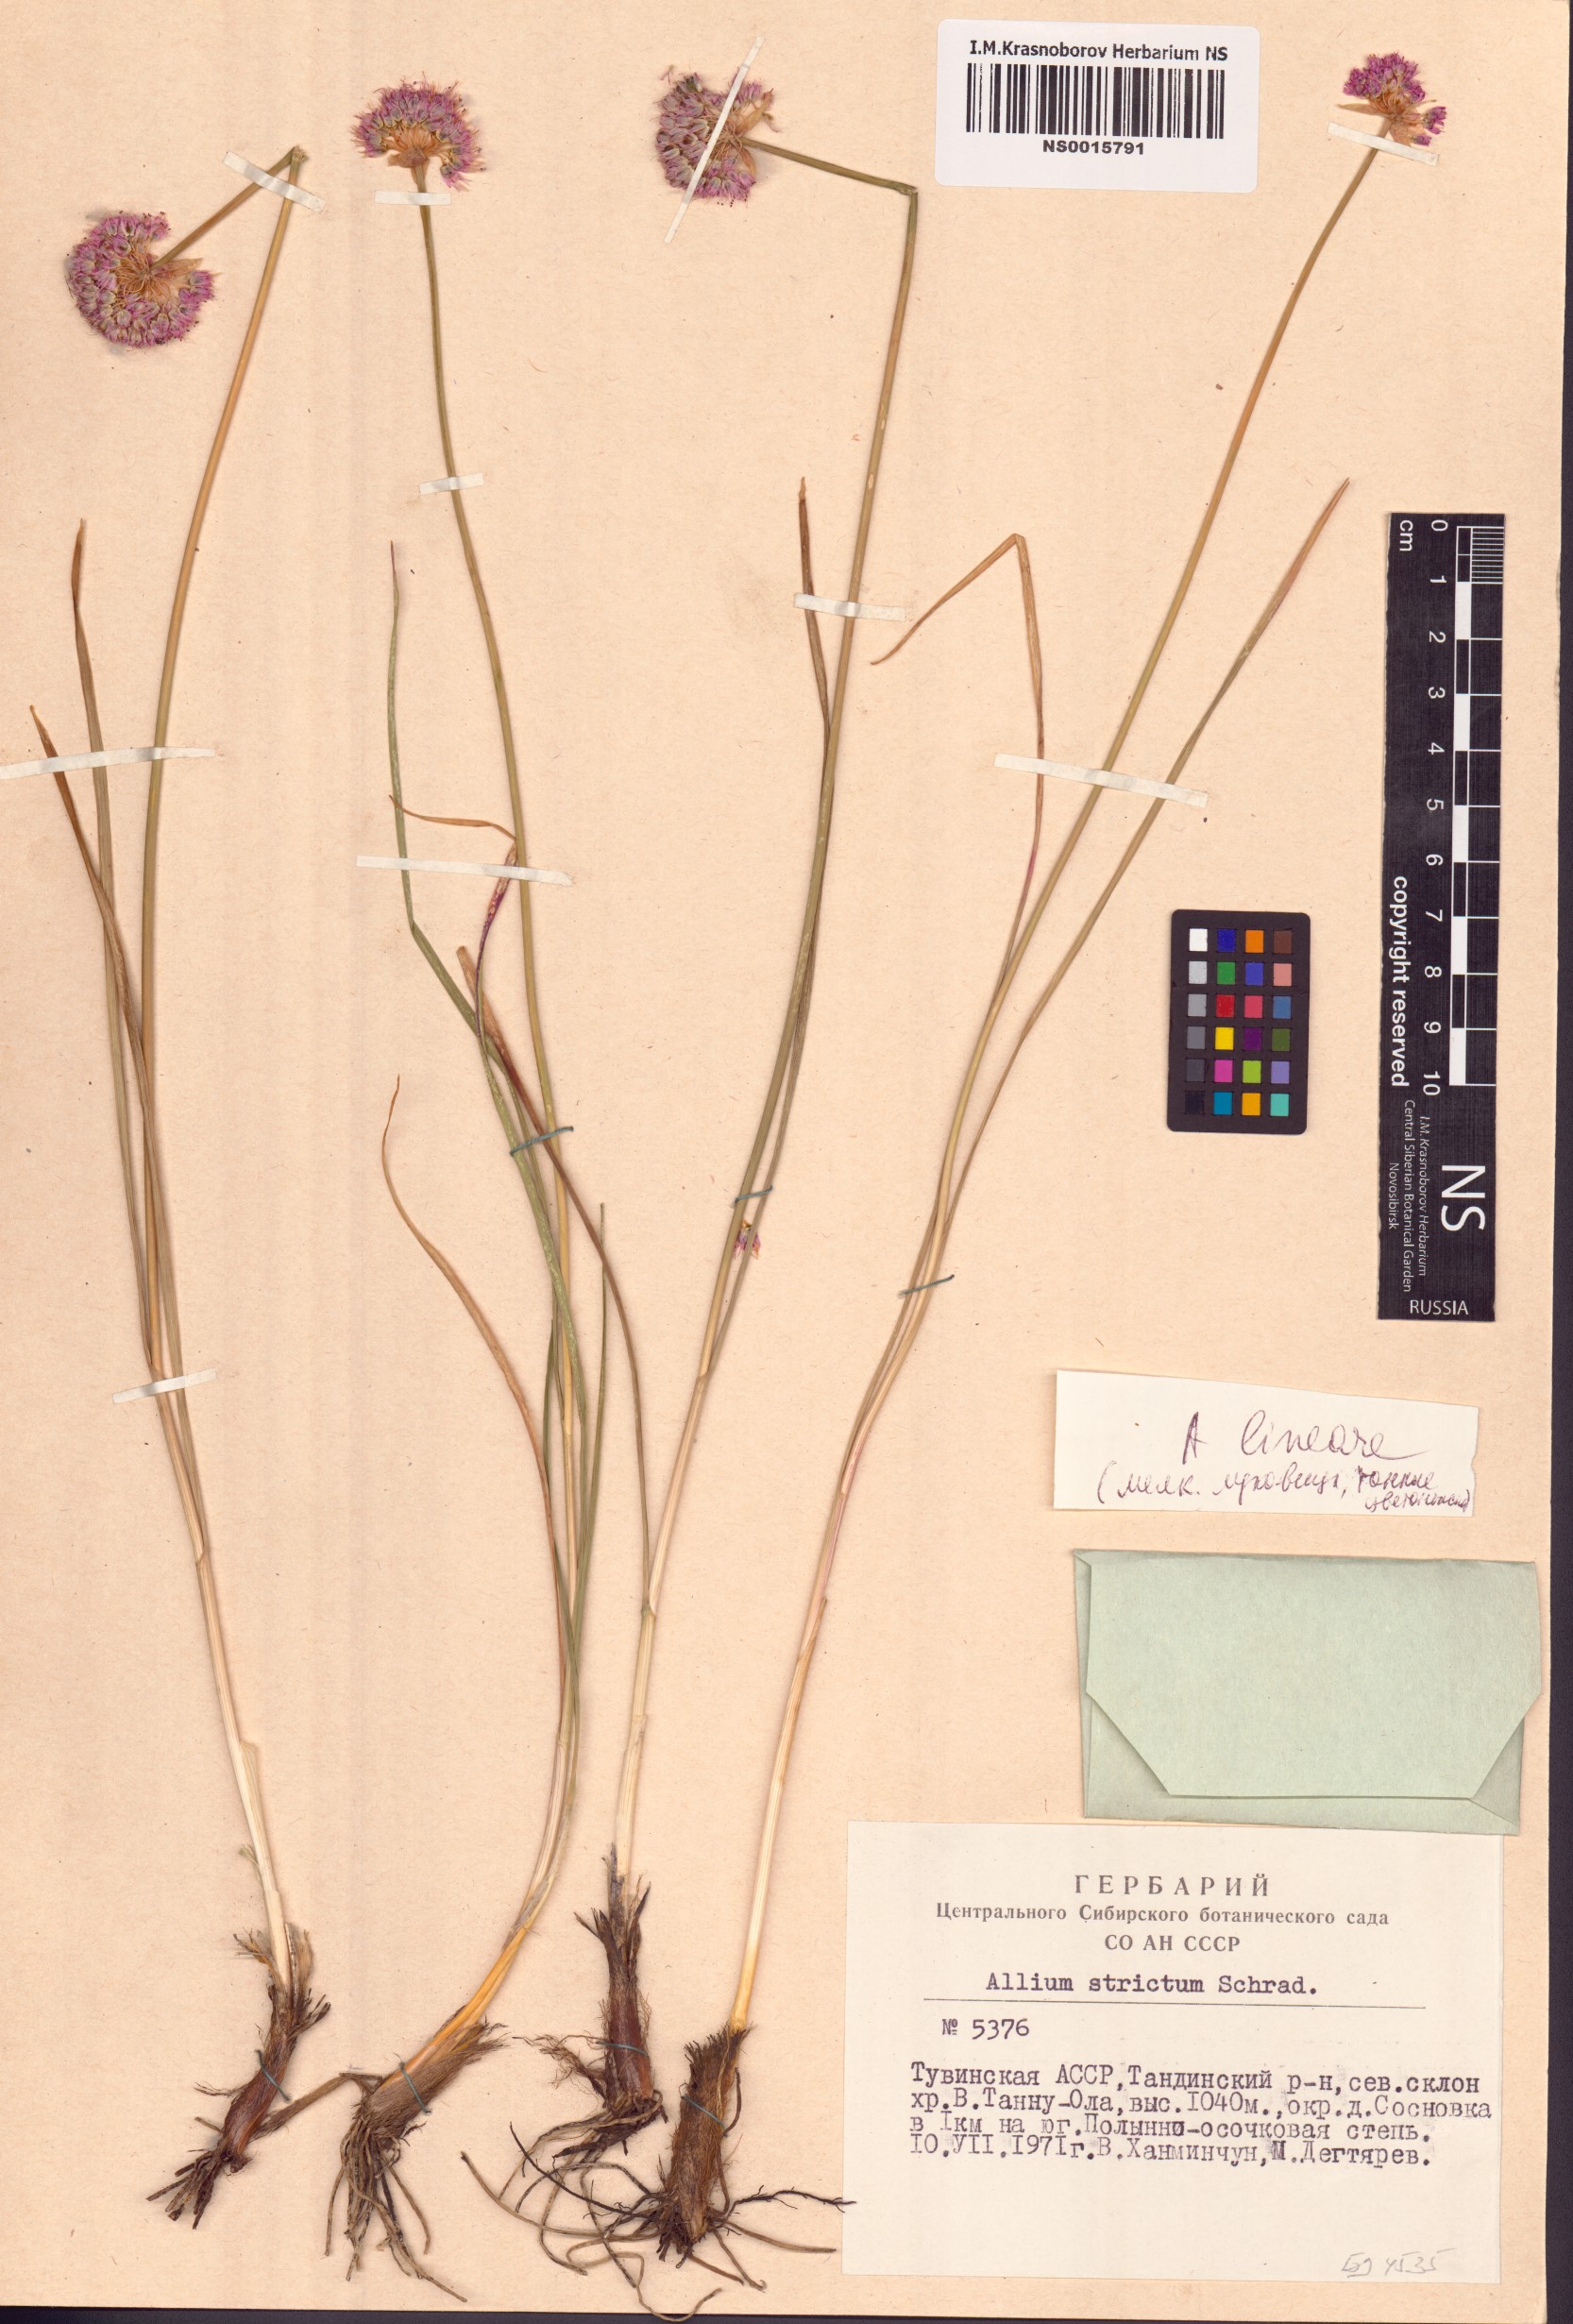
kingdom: Plantae
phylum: Tracheophyta
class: Liliopsida
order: Asparagales
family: Amaryllidaceae
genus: Allium
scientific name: Allium strictum
